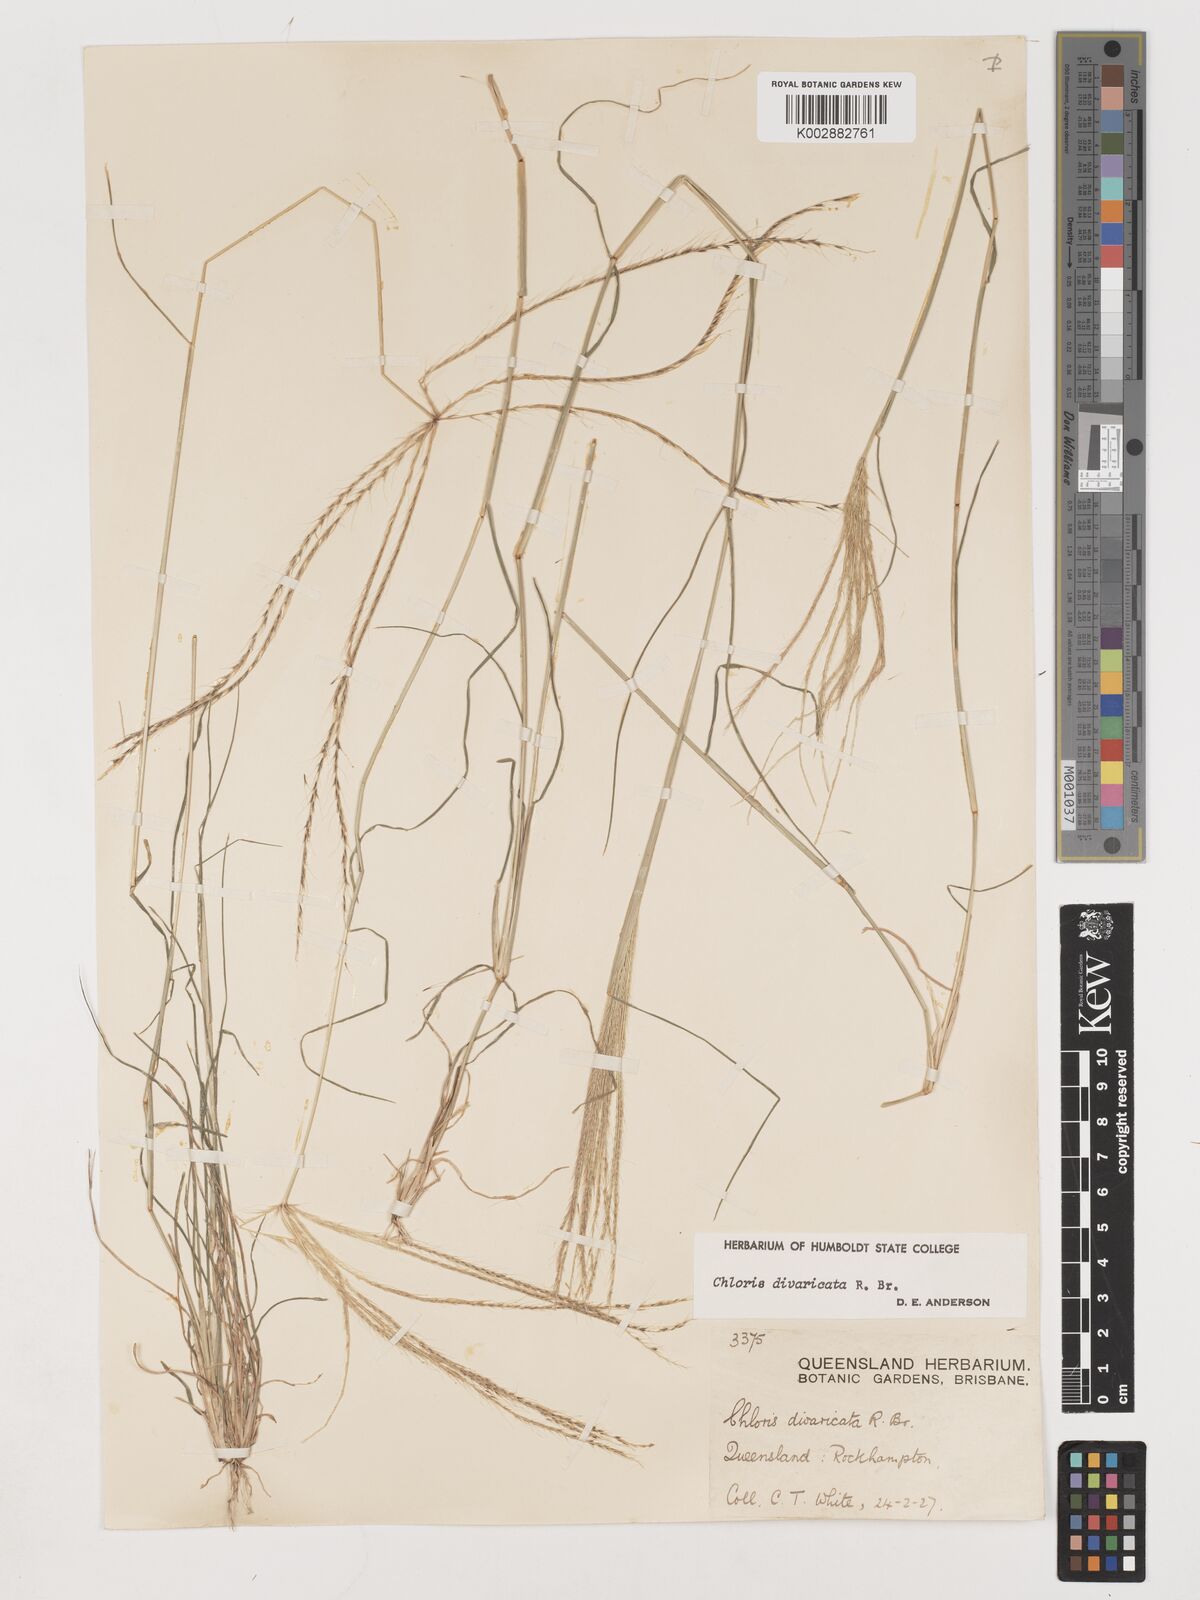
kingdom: Plantae
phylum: Tracheophyta
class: Liliopsida
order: Poales
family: Poaceae
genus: Chloris
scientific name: Chloris divaricata
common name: Spreading windmill grass
